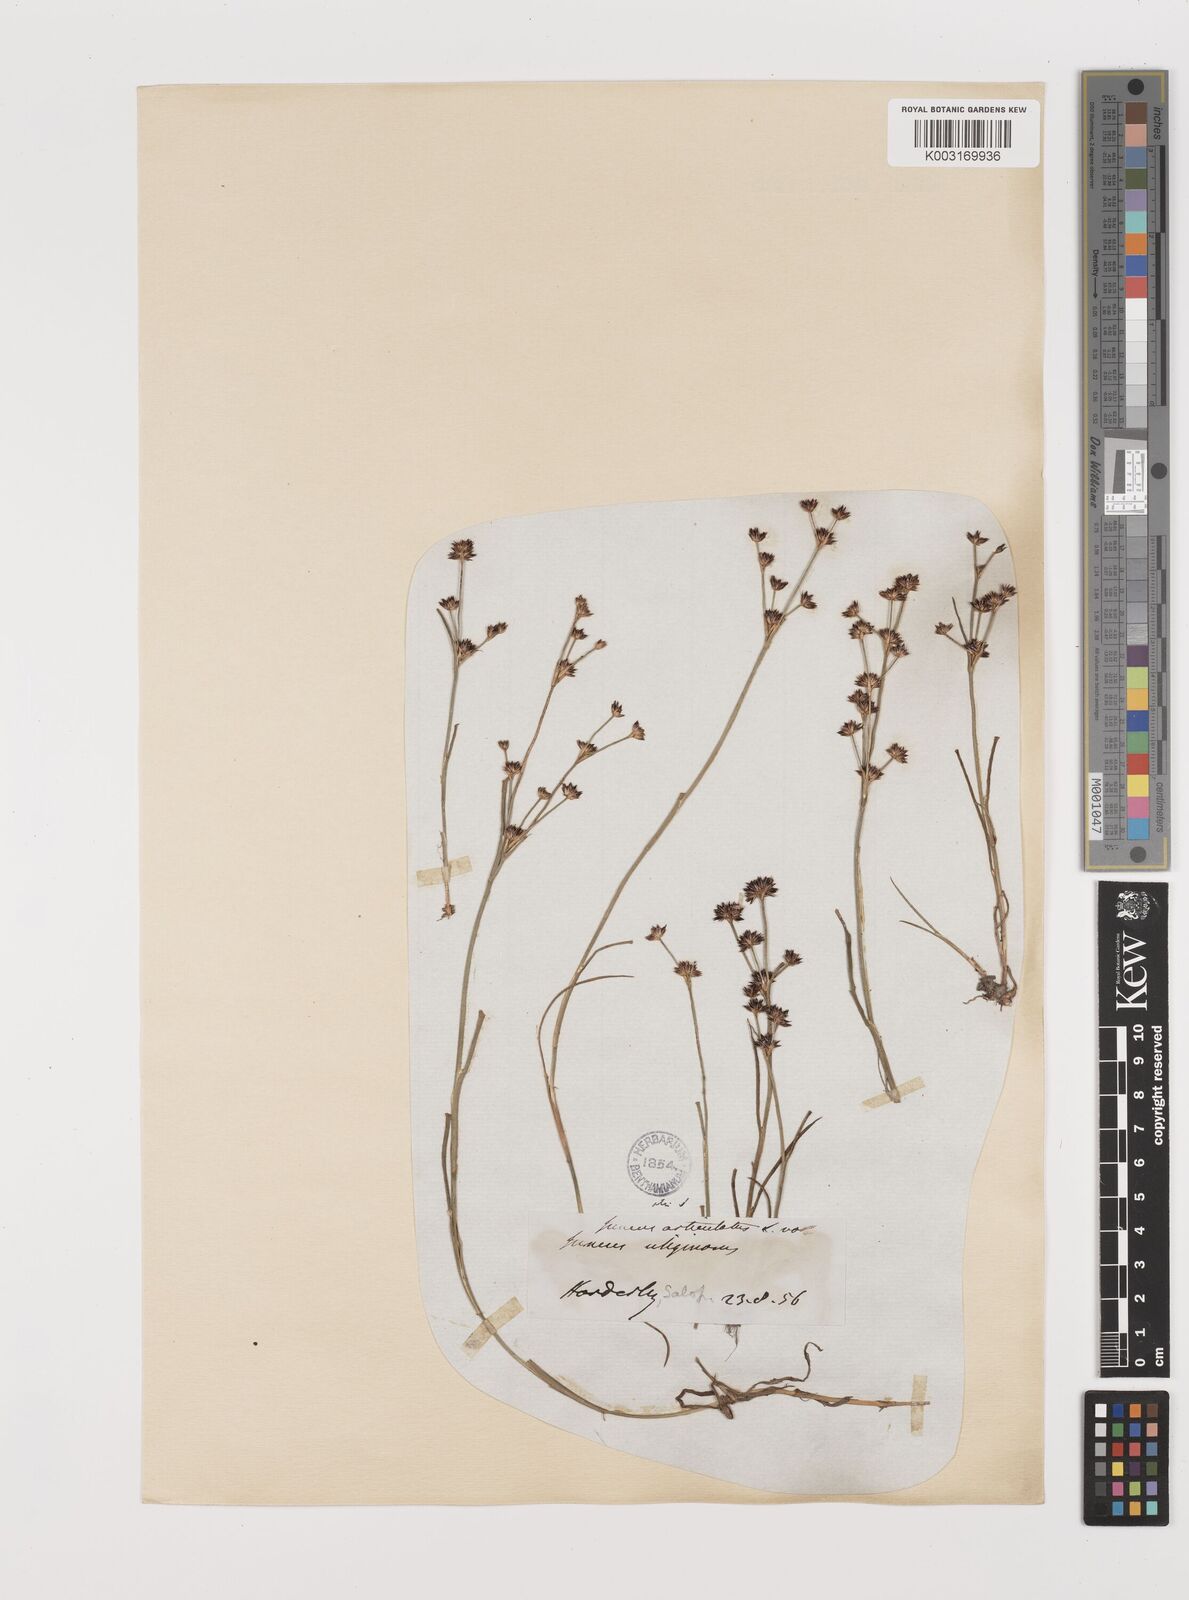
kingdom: Plantae
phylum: Tracheophyta
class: Liliopsida
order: Poales
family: Juncaceae
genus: Juncus
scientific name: Juncus articulatus
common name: Jointed rush
